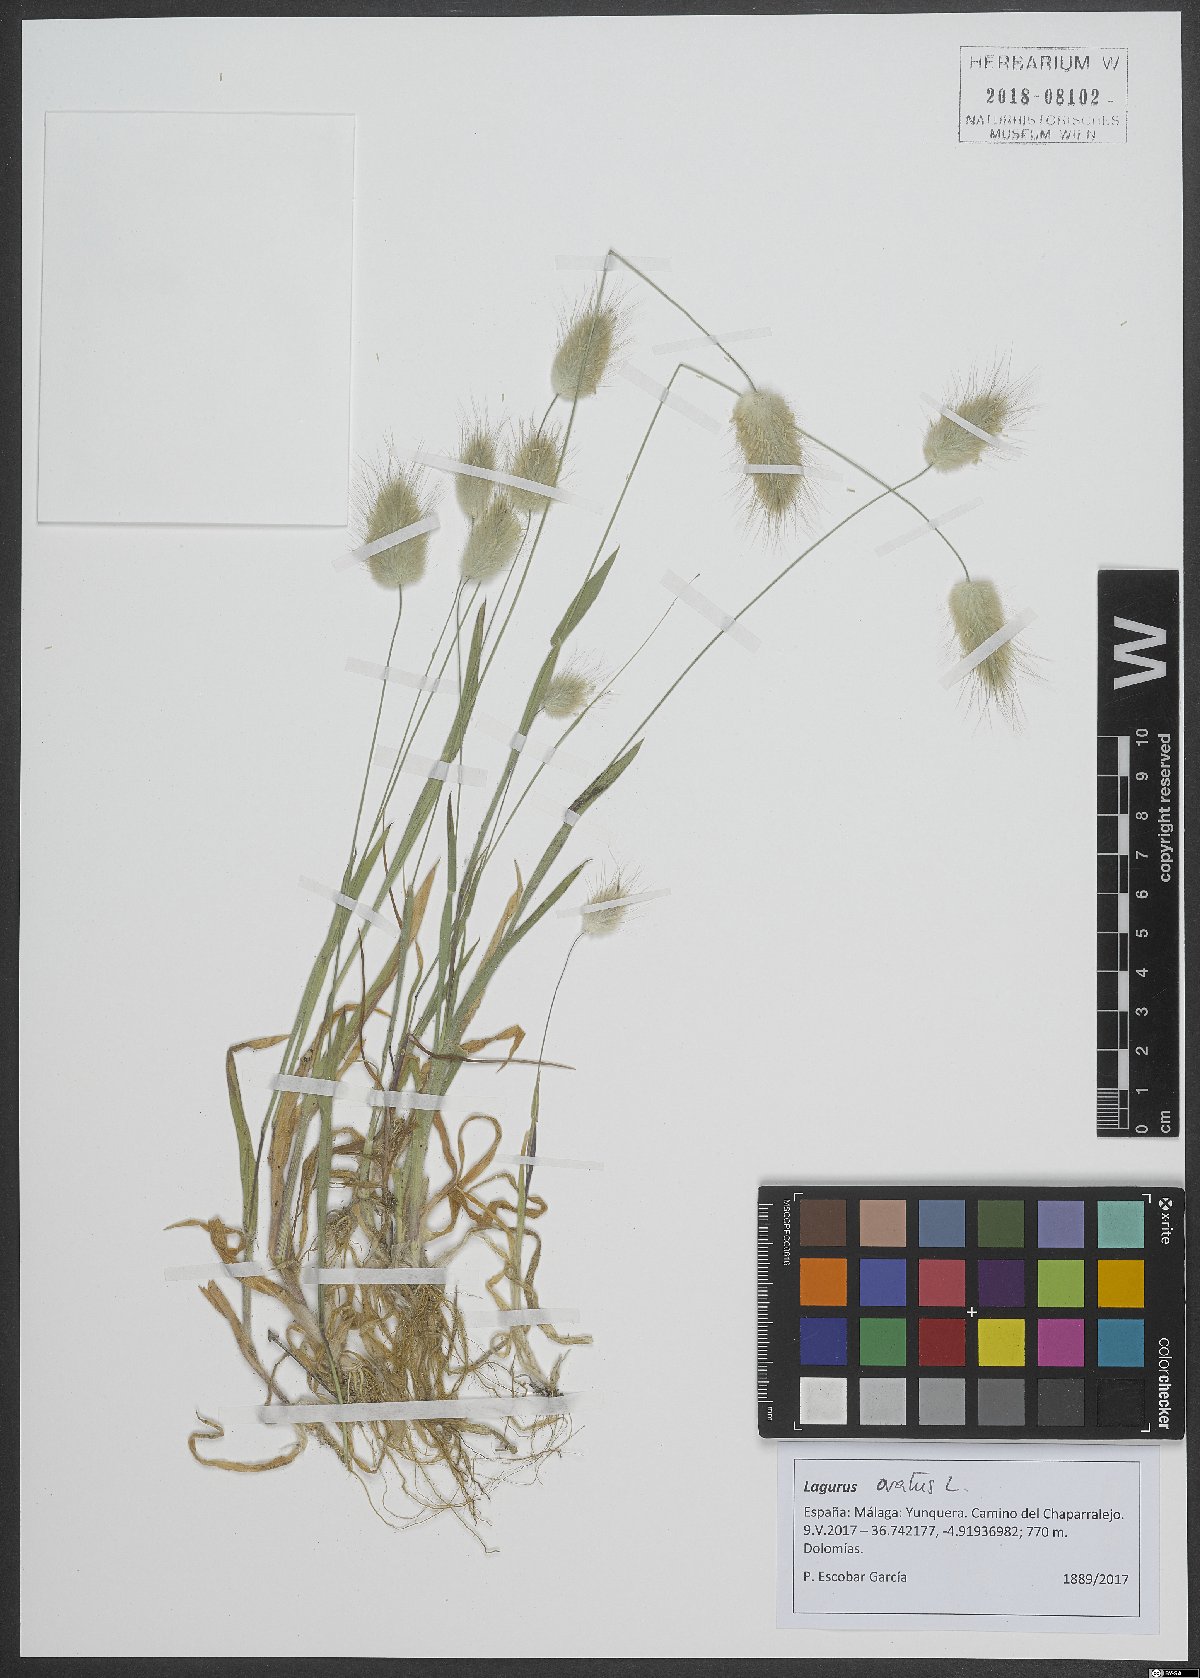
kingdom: Plantae
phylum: Tracheophyta
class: Liliopsida
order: Poales
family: Poaceae
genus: Lagurus
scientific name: Lagurus ovatus
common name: Hare's-tail
